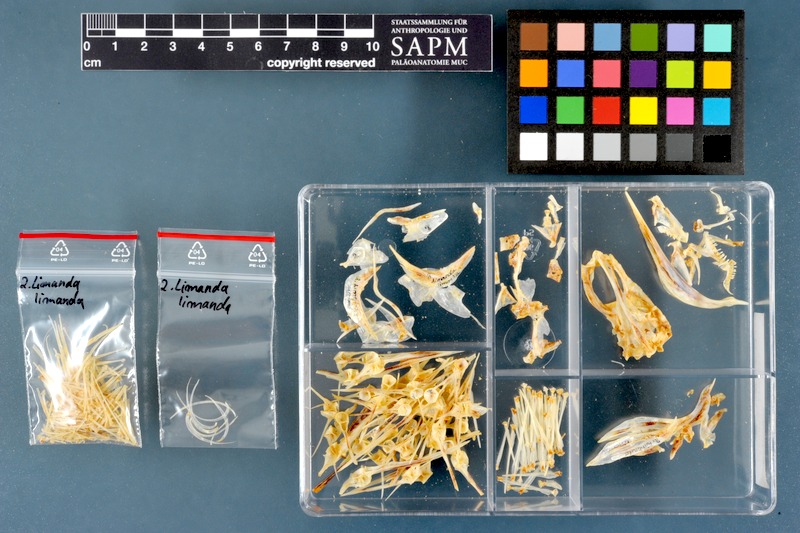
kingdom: Animalia
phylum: Chordata
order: Pleuronectiformes
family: Pleuronectidae
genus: Limanda
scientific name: Limanda limanda
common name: Dab
